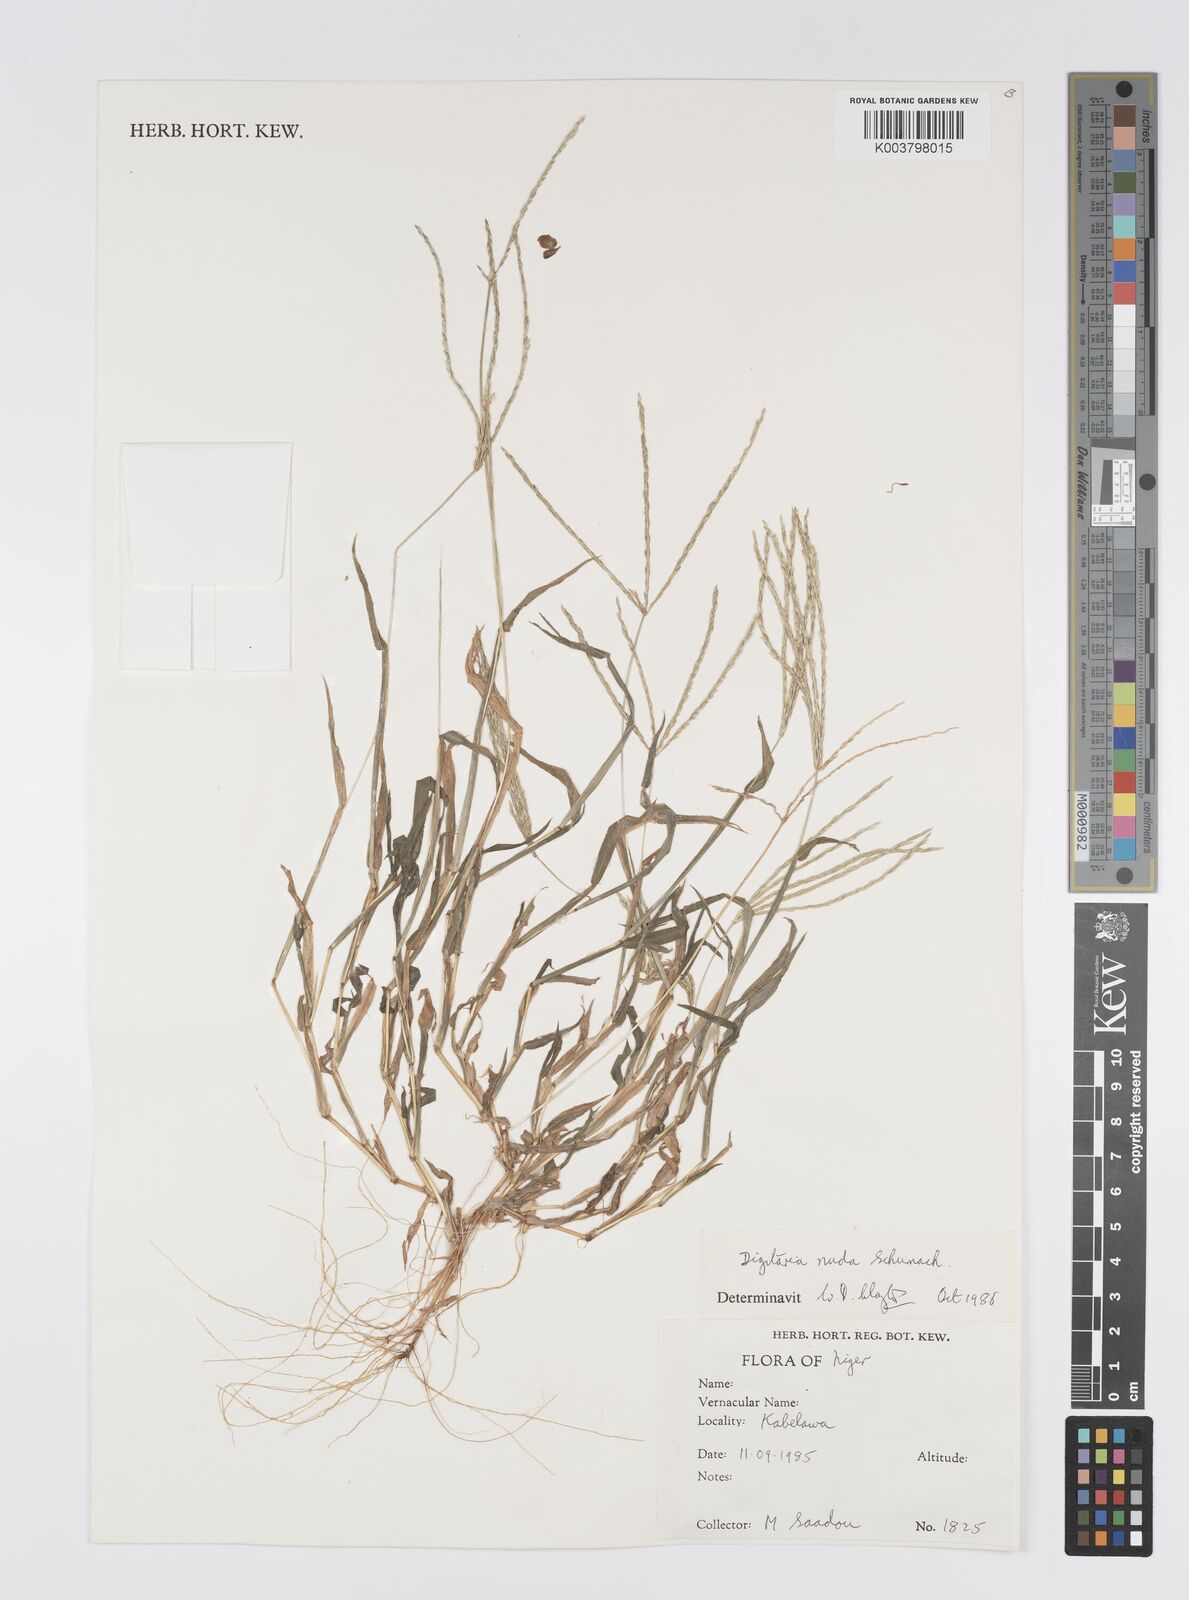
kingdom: Plantae
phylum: Tracheophyta
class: Liliopsida
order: Poales
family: Poaceae
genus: Digitaria
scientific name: Digitaria nuda
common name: Naked crabgrass
